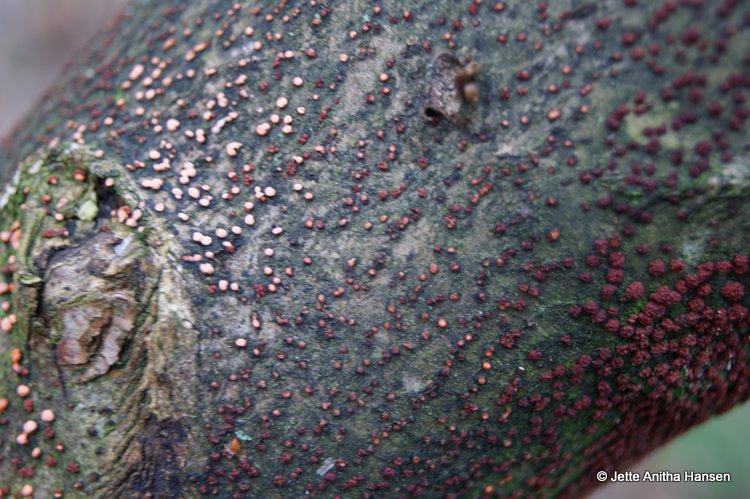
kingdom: Fungi
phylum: Ascomycota
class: Sordariomycetes
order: Hypocreales
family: Nectriaceae
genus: Nectria
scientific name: Nectria cinnabarina
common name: almindelig cinnobersvamp
